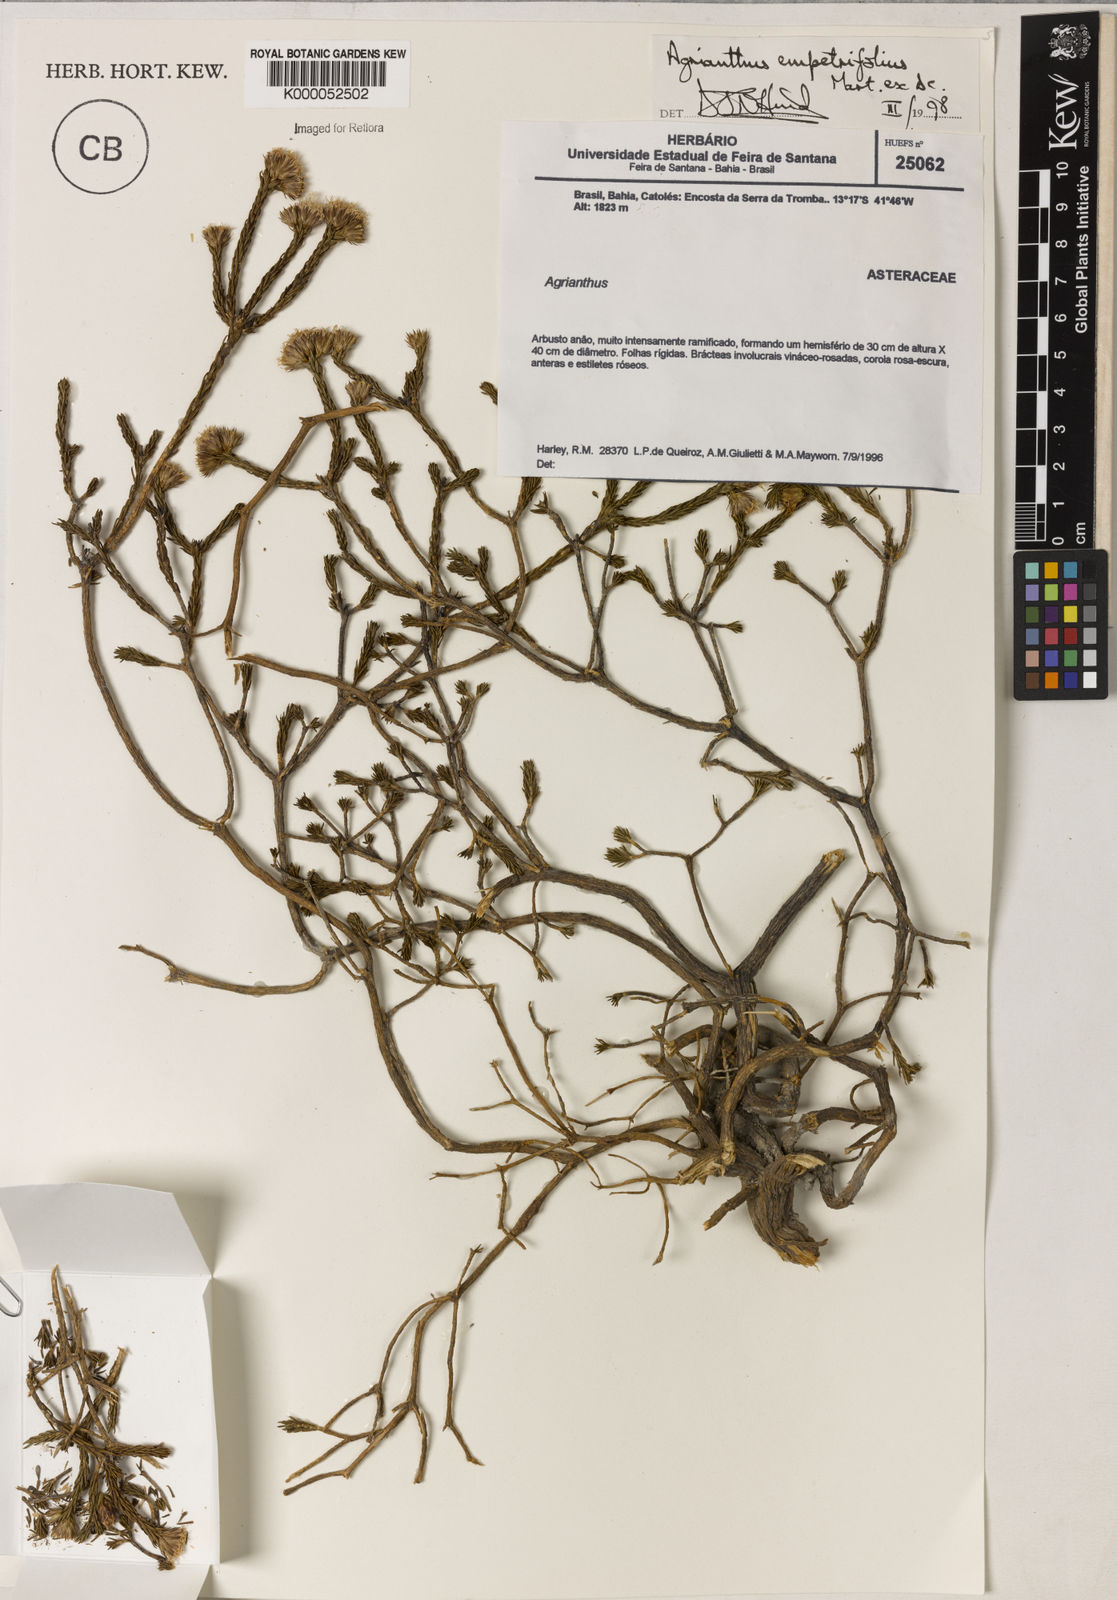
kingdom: Plantae
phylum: Tracheophyta
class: Magnoliopsida
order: Asterales
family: Asteraceae
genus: Agrianthus
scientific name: Agrianthus
